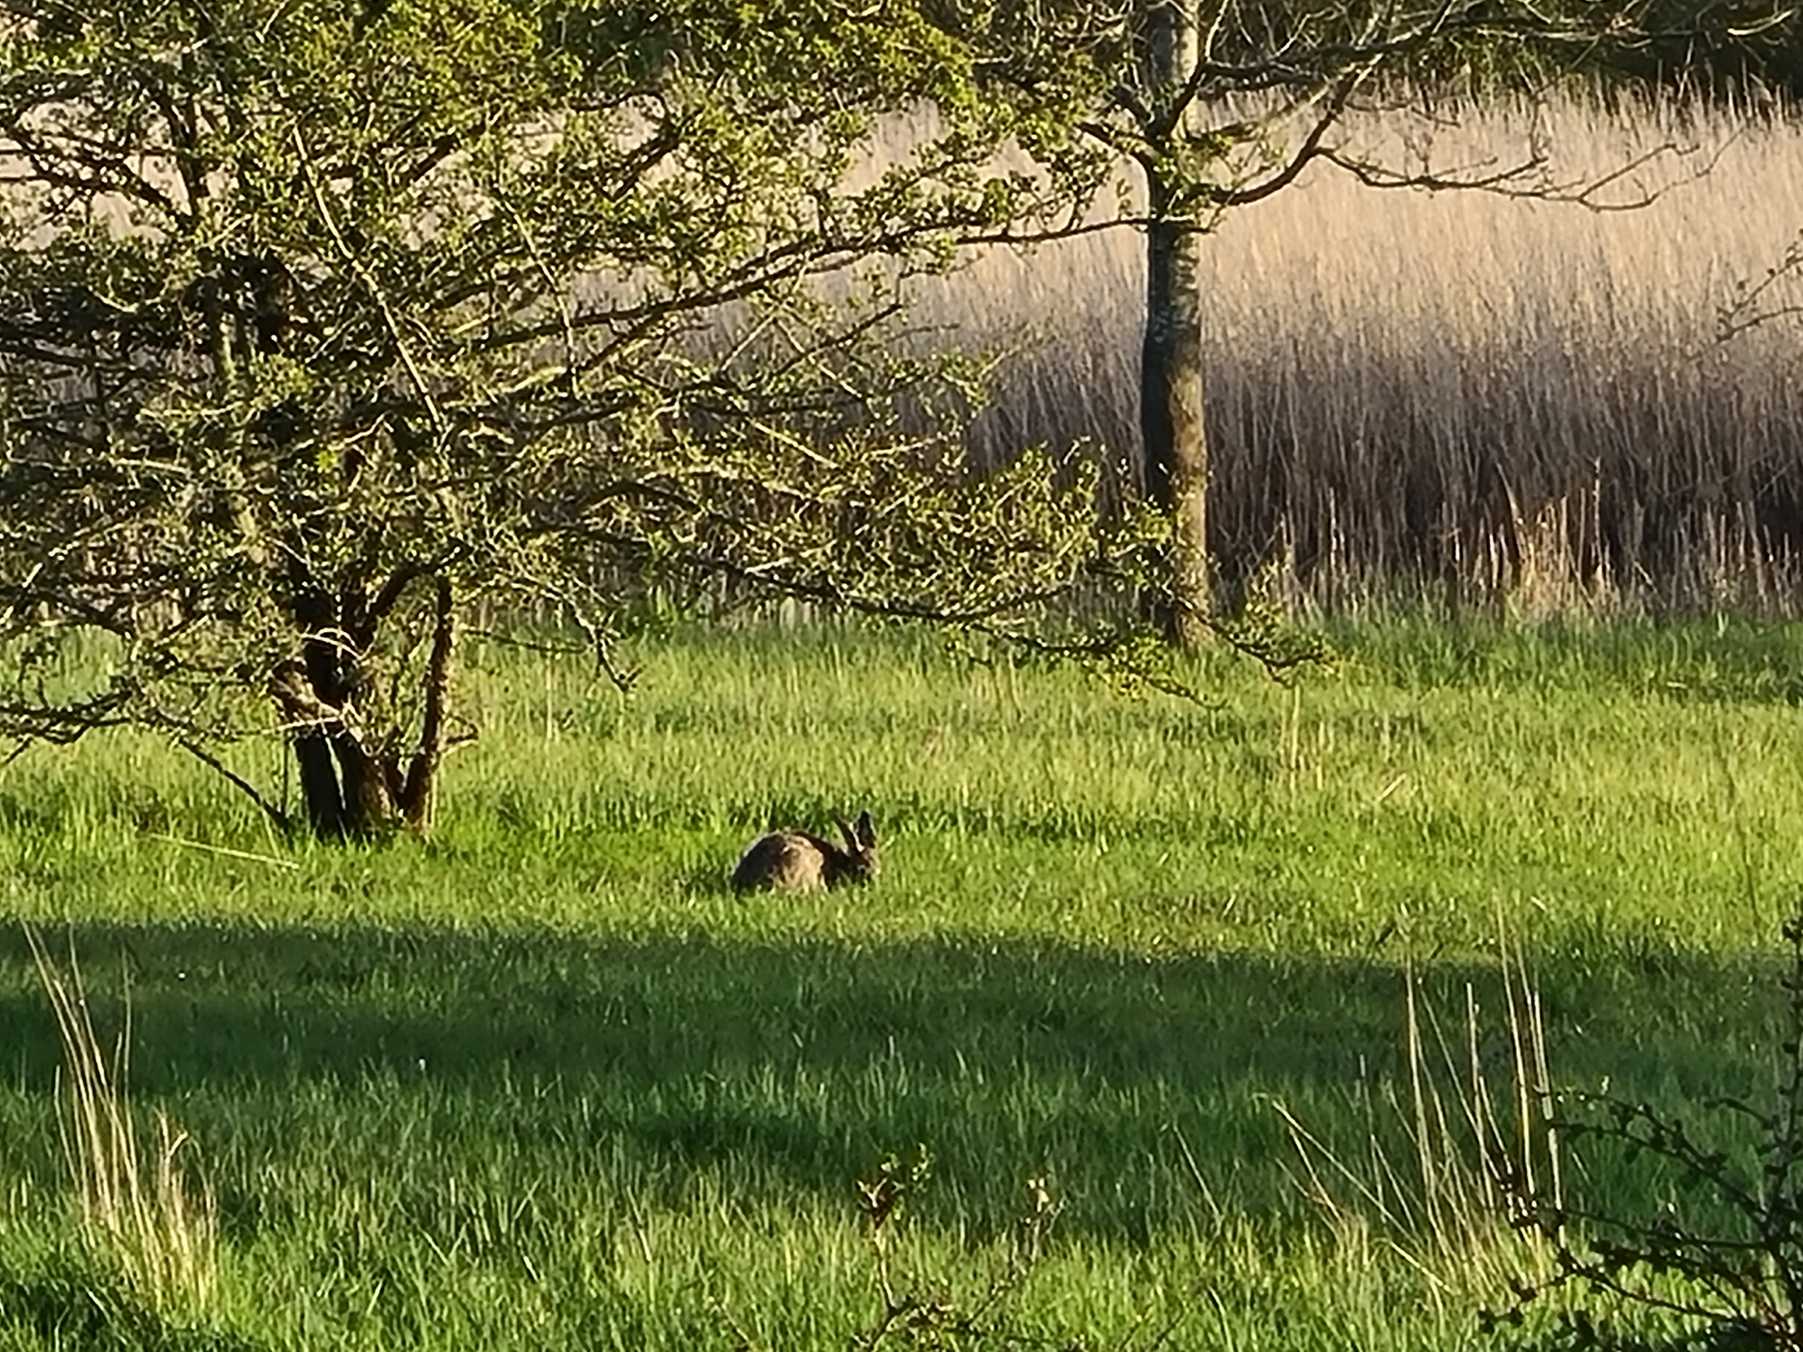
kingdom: Animalia
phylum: Chordata
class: Mammalia
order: Lagomorpha
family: Leporidae
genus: Lepus
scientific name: Lepus europaeus
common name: Hare
